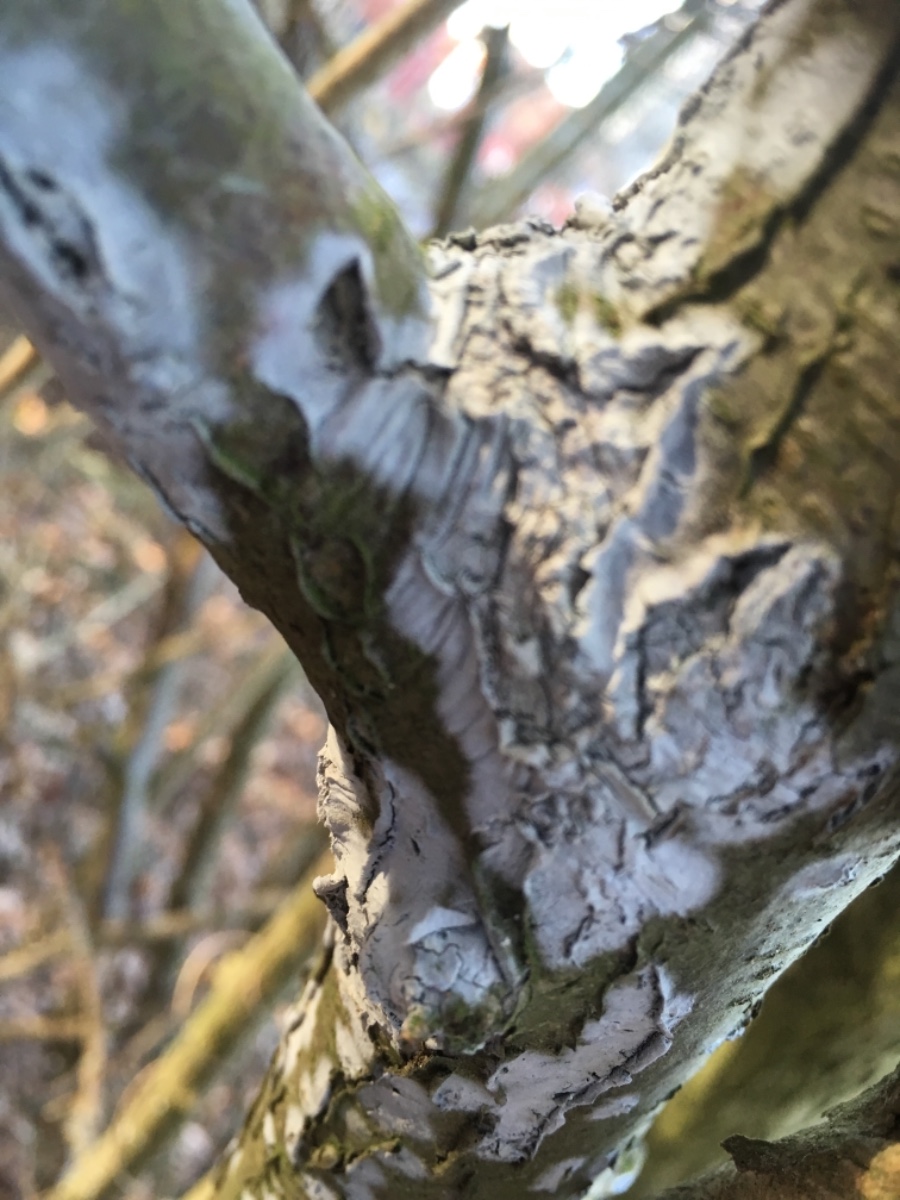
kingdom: Fungi
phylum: Basidiomycota
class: Agaricomycetes
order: Corticiales
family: Corticiaceae
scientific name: Corticiaceae
